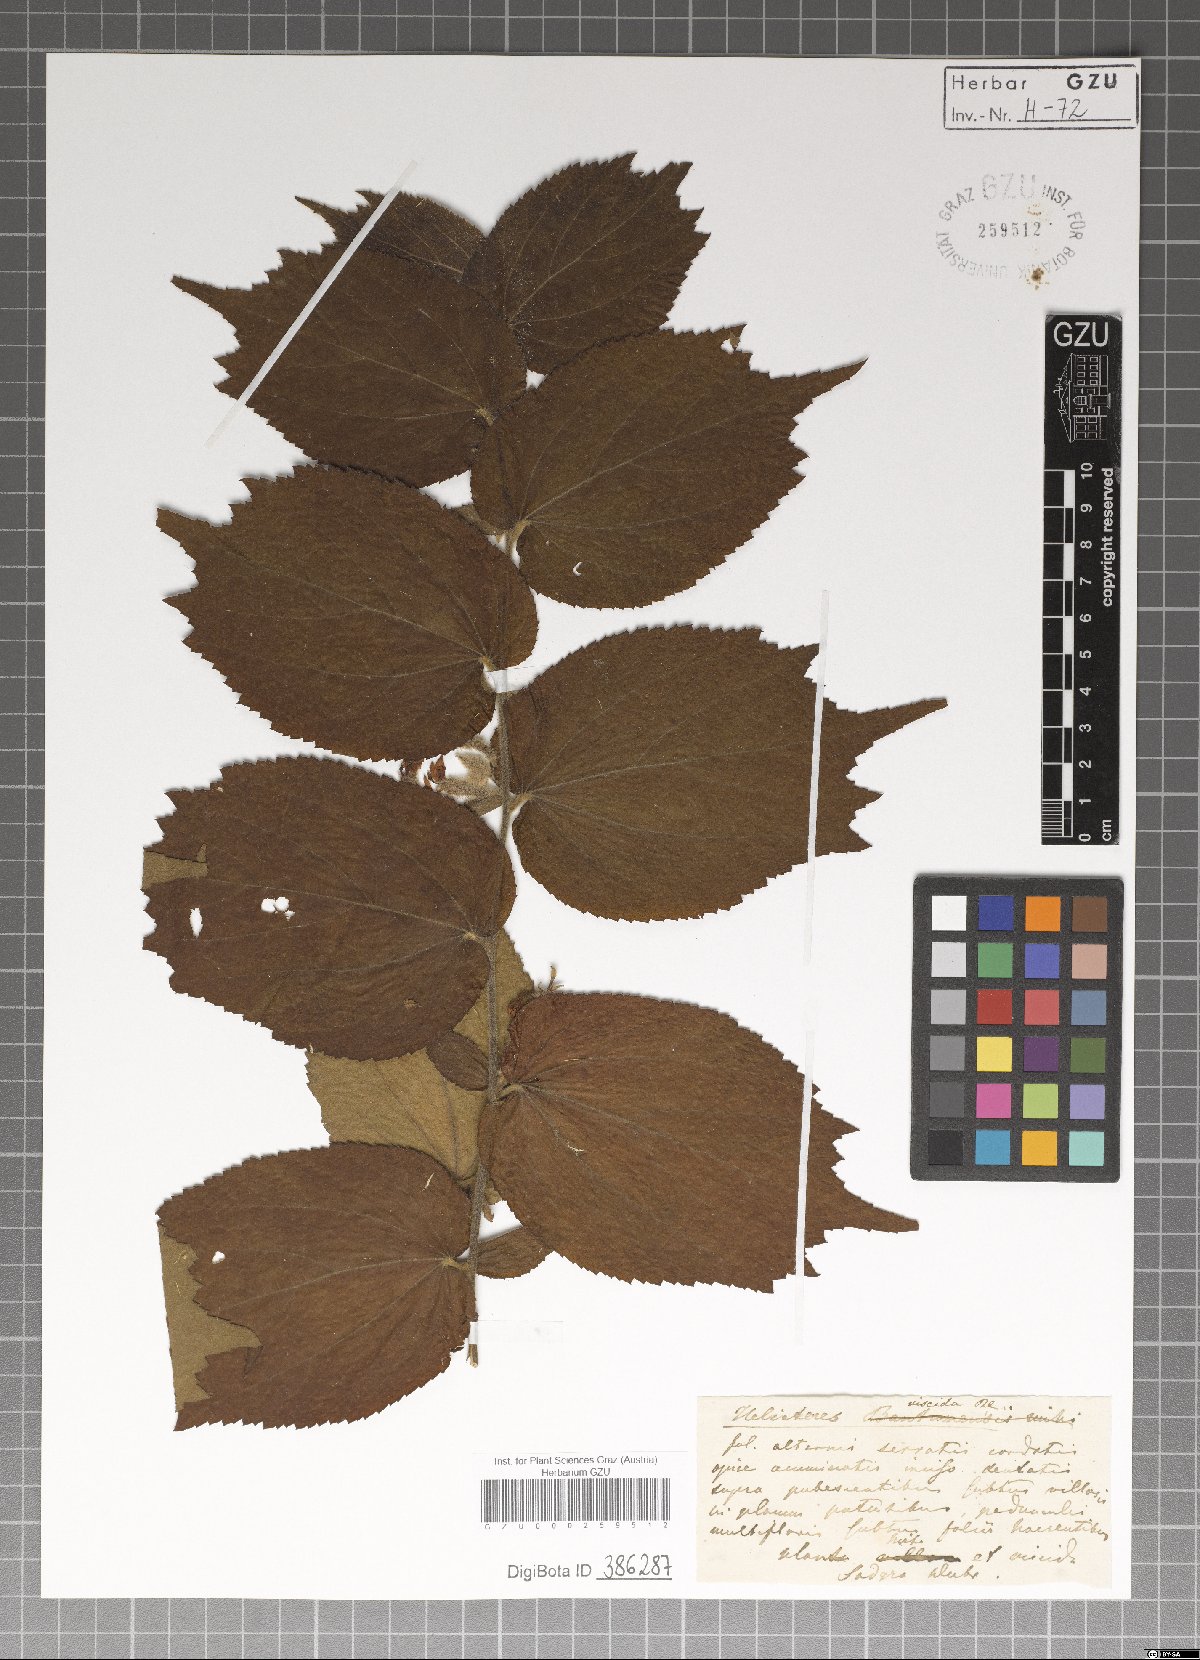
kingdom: Plantae
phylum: Tracheophyta
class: Magnoliopsida
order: Malvales
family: Malvaceae
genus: Helicteres
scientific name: Helicteres viscida
